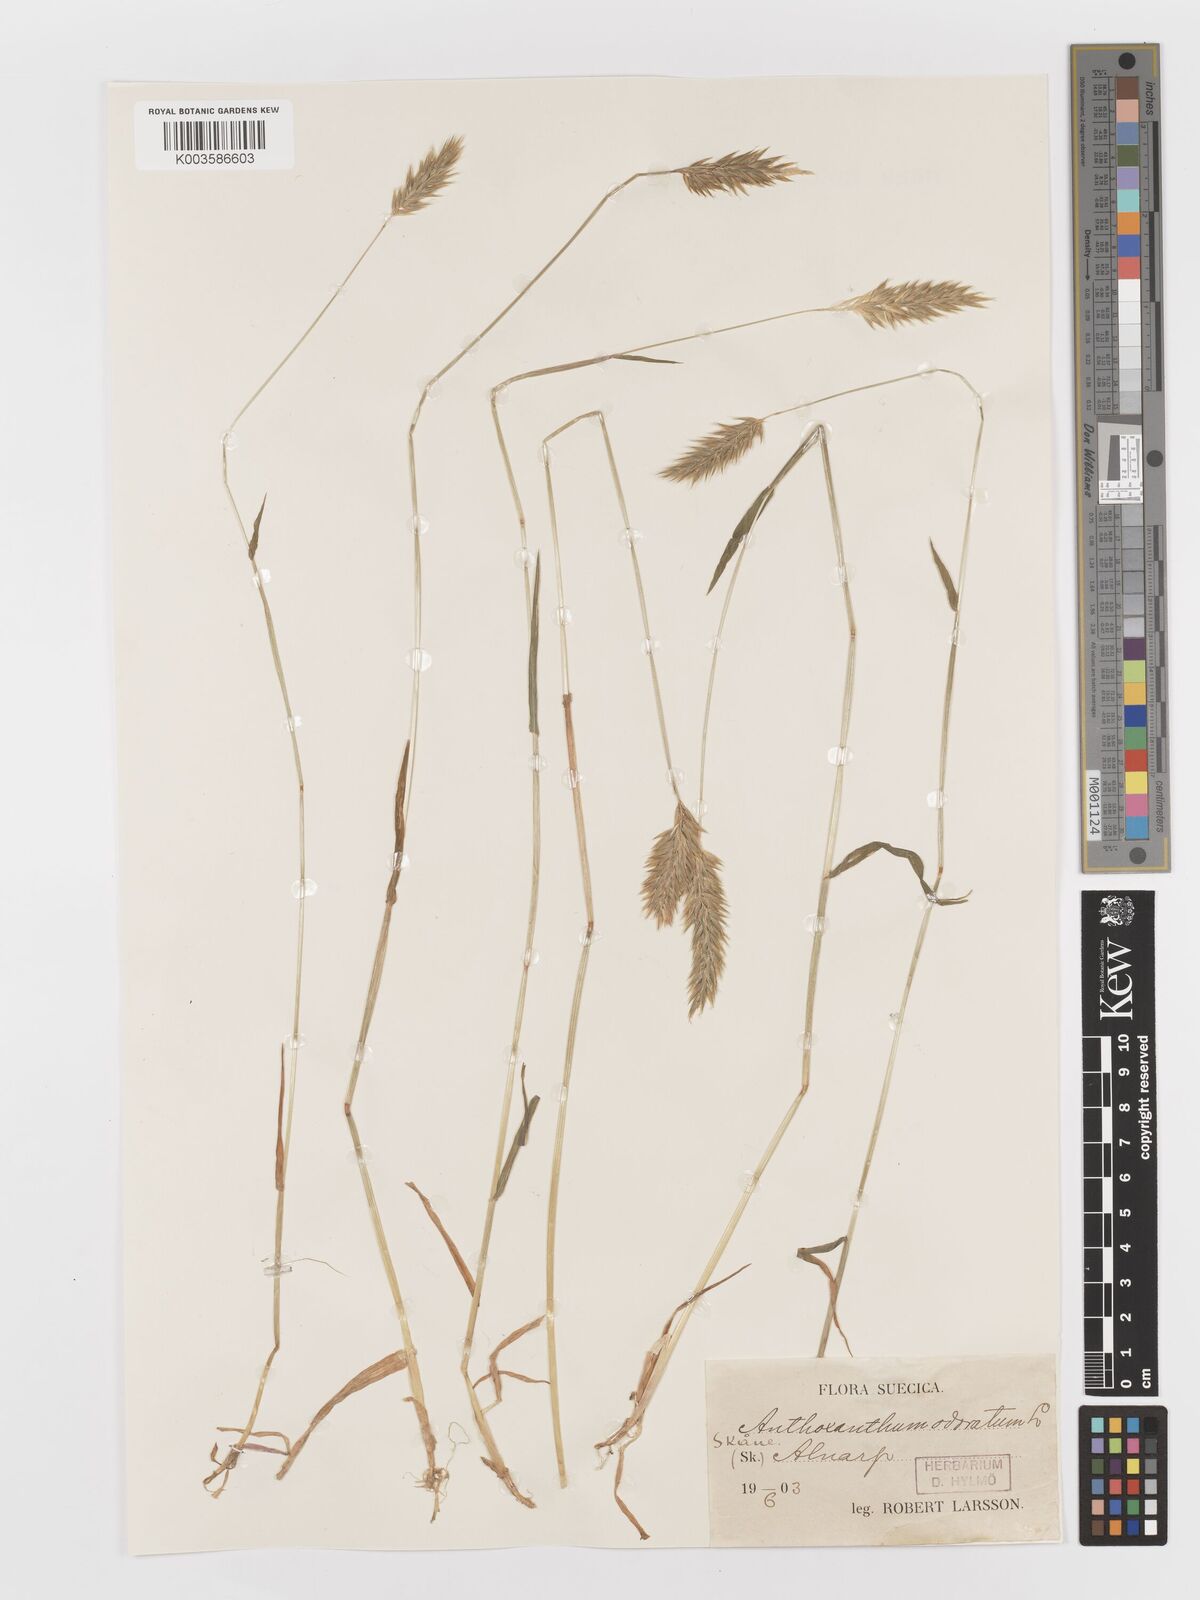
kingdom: Plantae
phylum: Tracheophyta
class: Liliopsida
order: Poales
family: Poaceae
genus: Anthoxanthum
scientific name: Anthoxanthum odoratum
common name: Sweet vernalgrass
